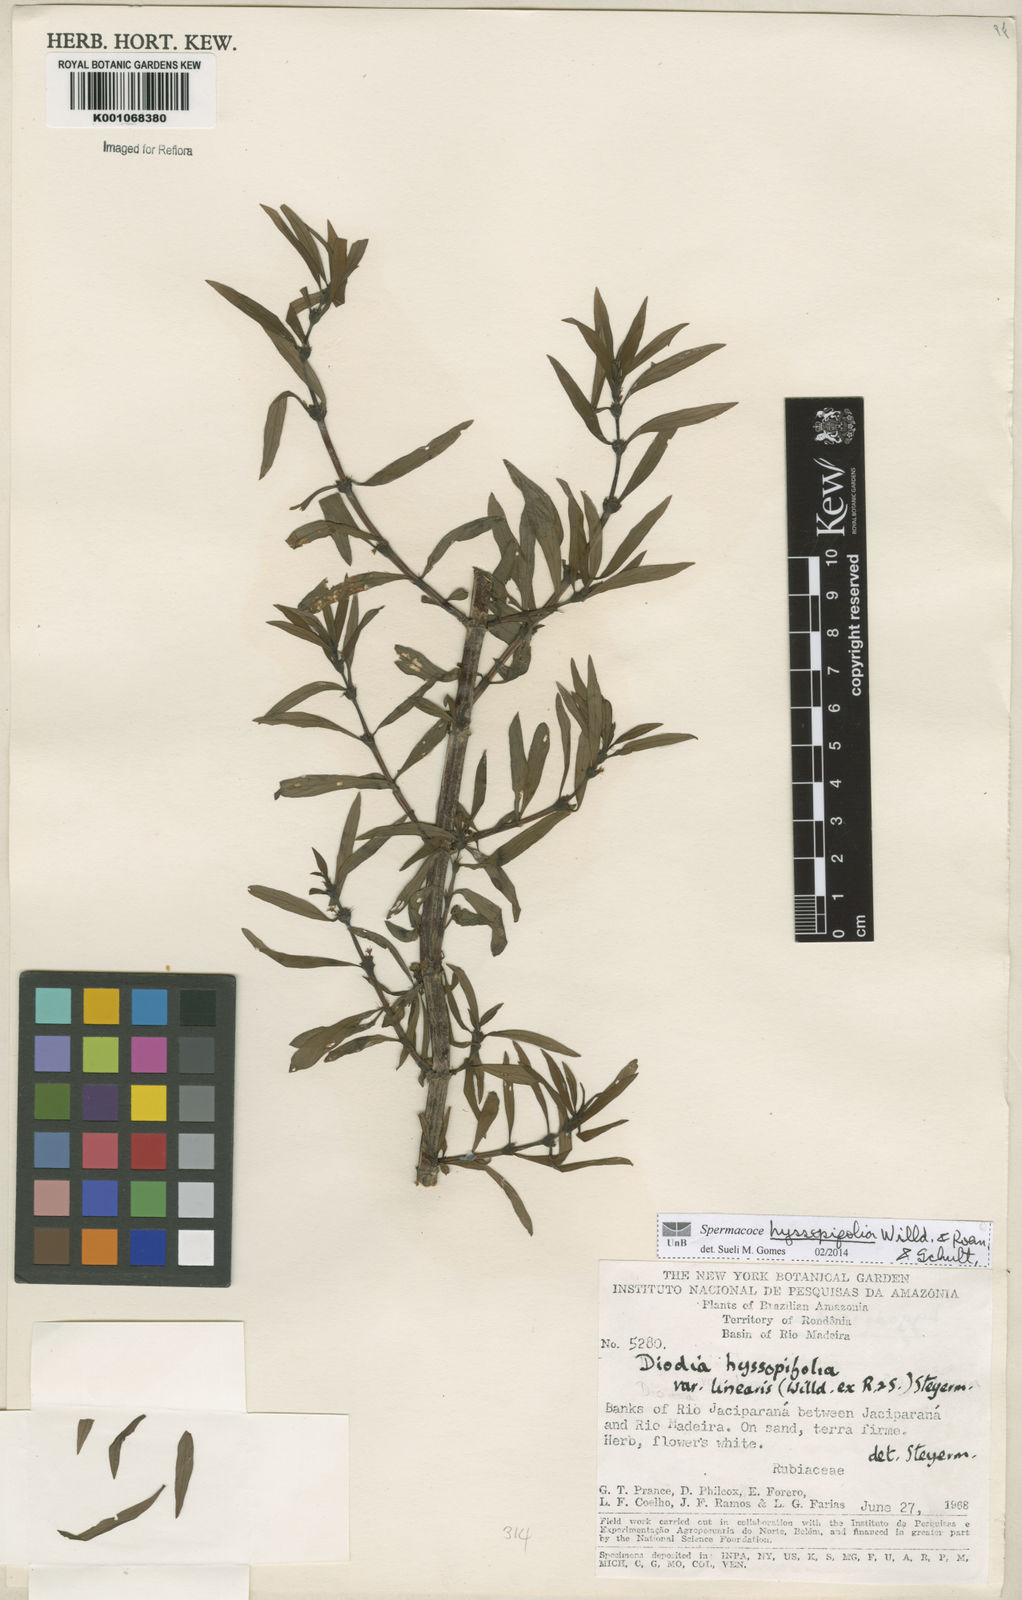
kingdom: Plantae
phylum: Tracheophyta
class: Magnoliopsida
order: Gentianales
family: Rubiaceae
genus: Spermacoce
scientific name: Spermacoce
